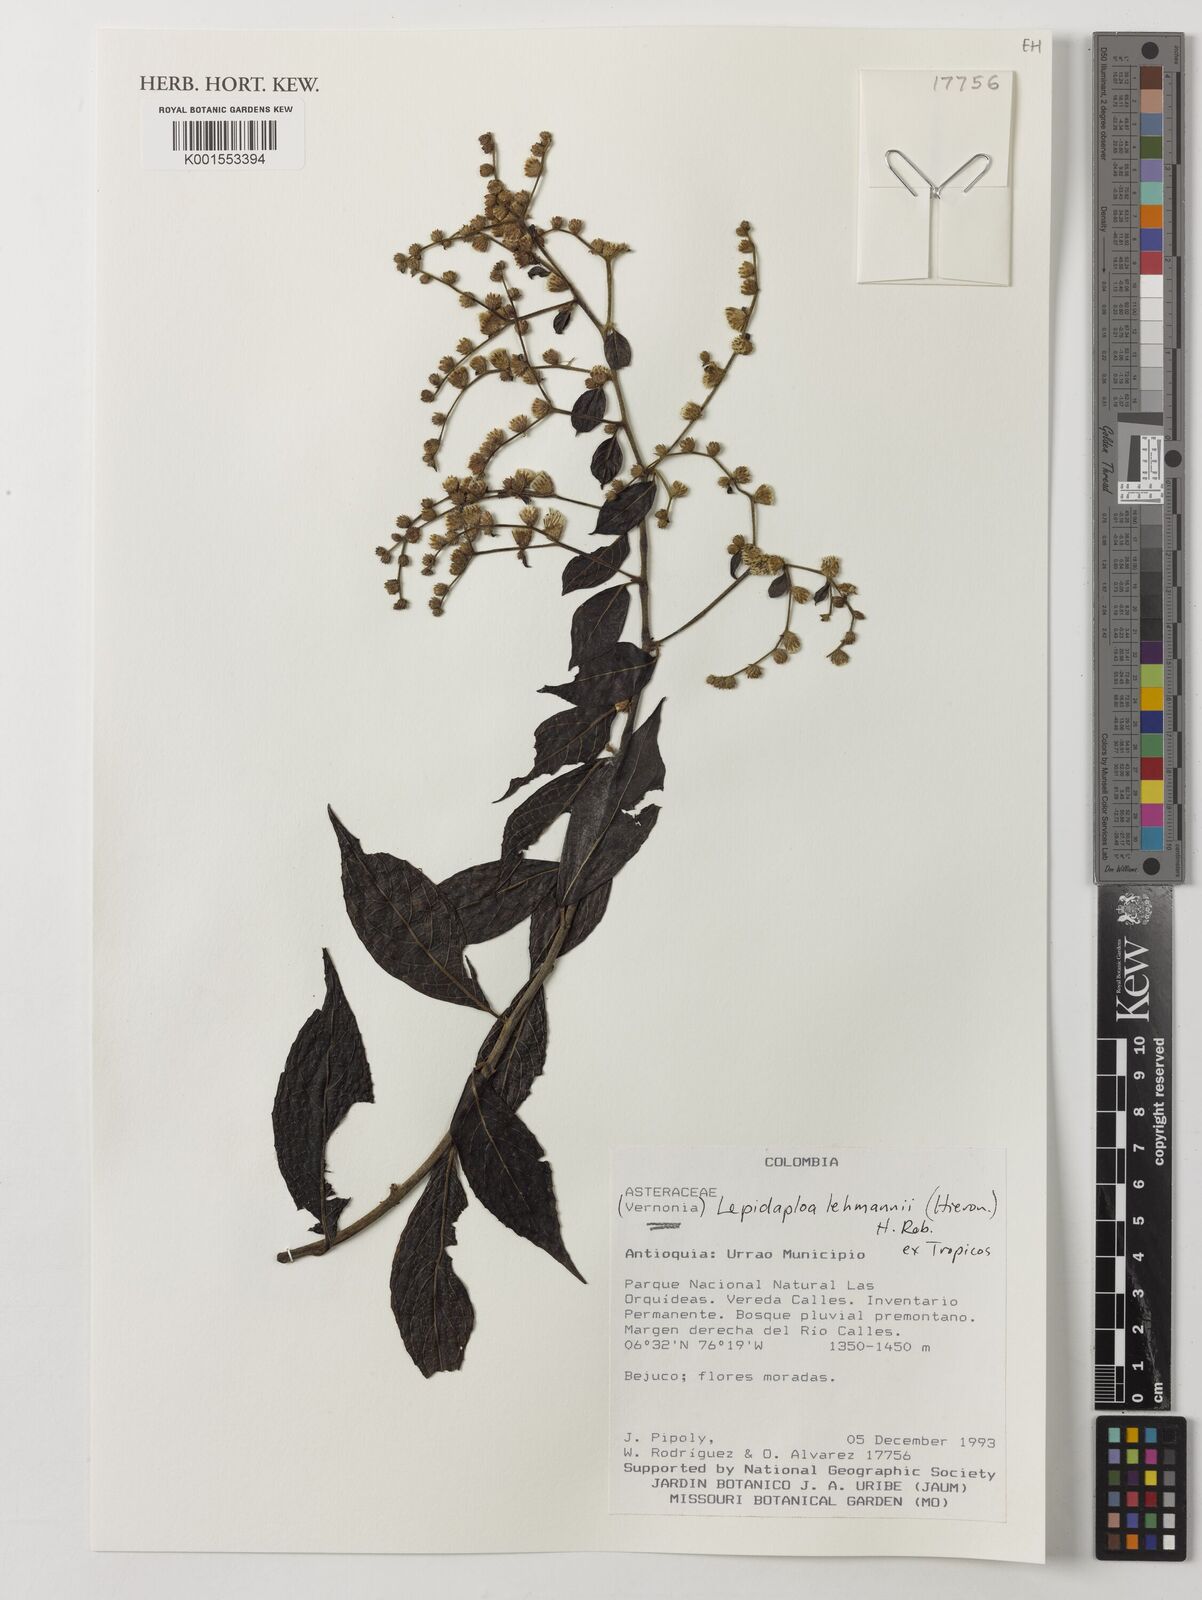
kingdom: Plantae
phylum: Tracheophyta
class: Magnoliopsida
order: Asterales
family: Asteraceae
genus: Lepidaploa
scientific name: Lepidaploa lehmannii
